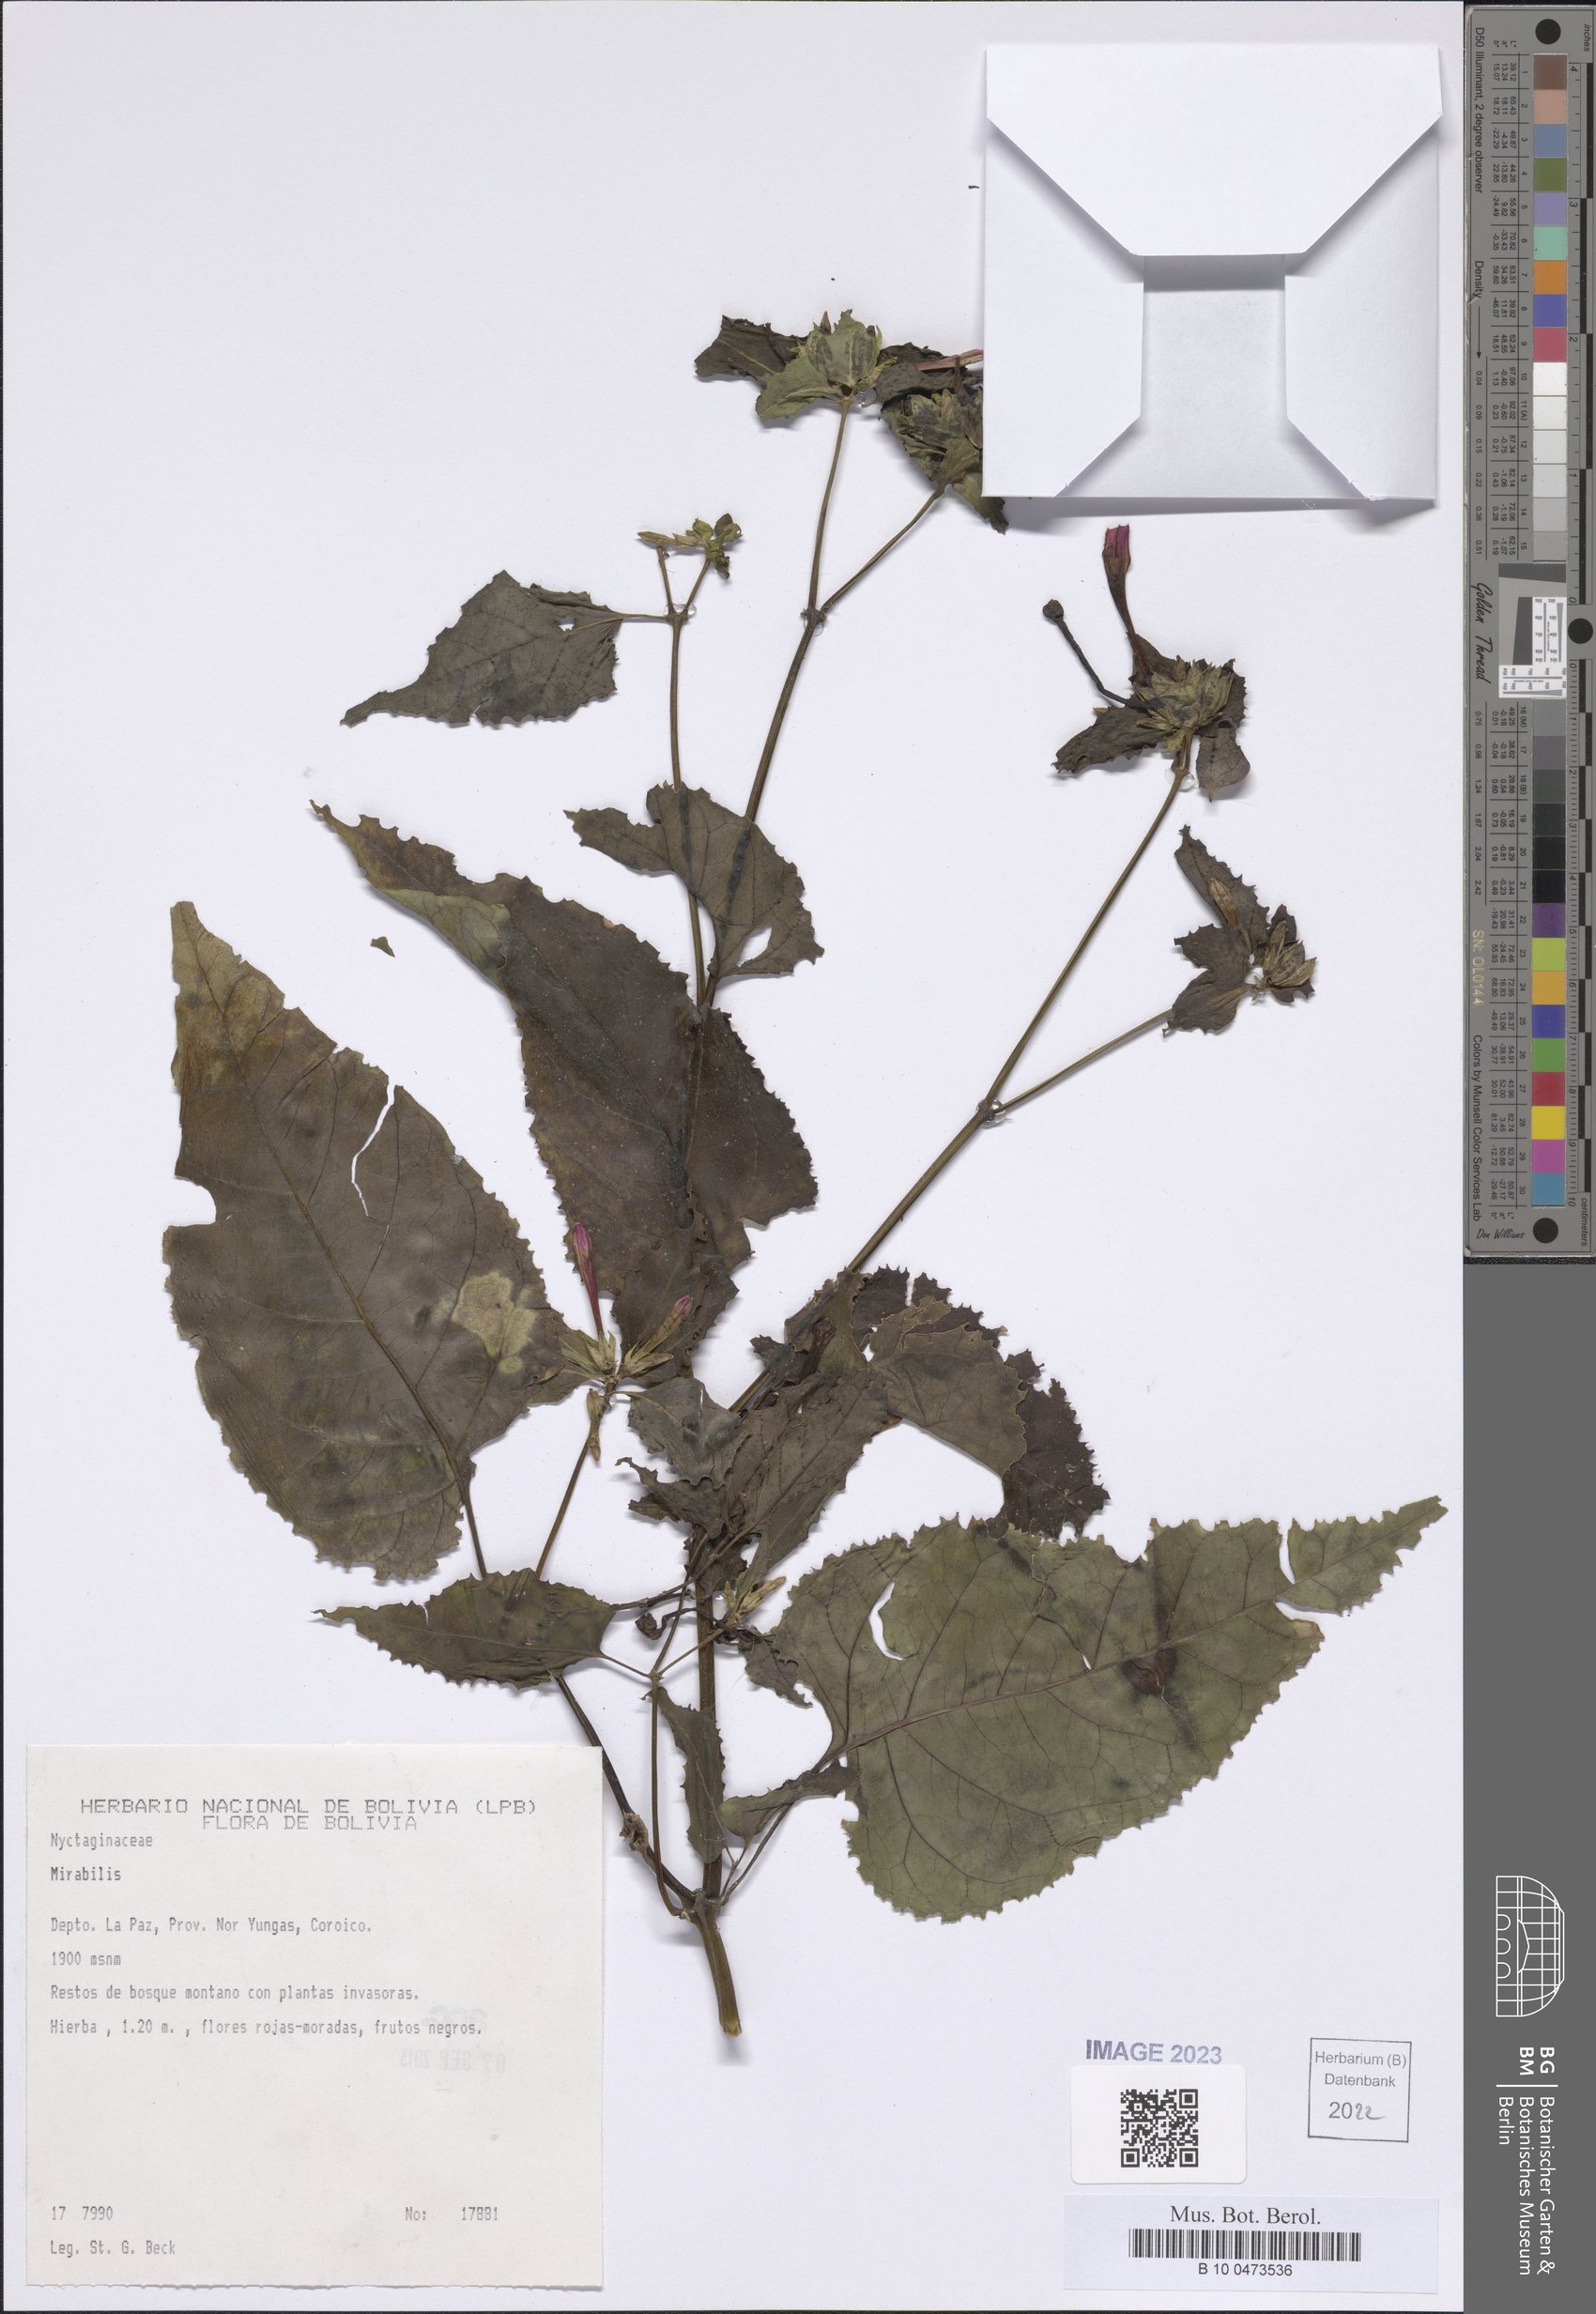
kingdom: Plantae
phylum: Tracheophyta
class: Magnoliopsida
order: Caryophyllales
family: Nyctaginaceae
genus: Mirabilis
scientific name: Mirabilis
